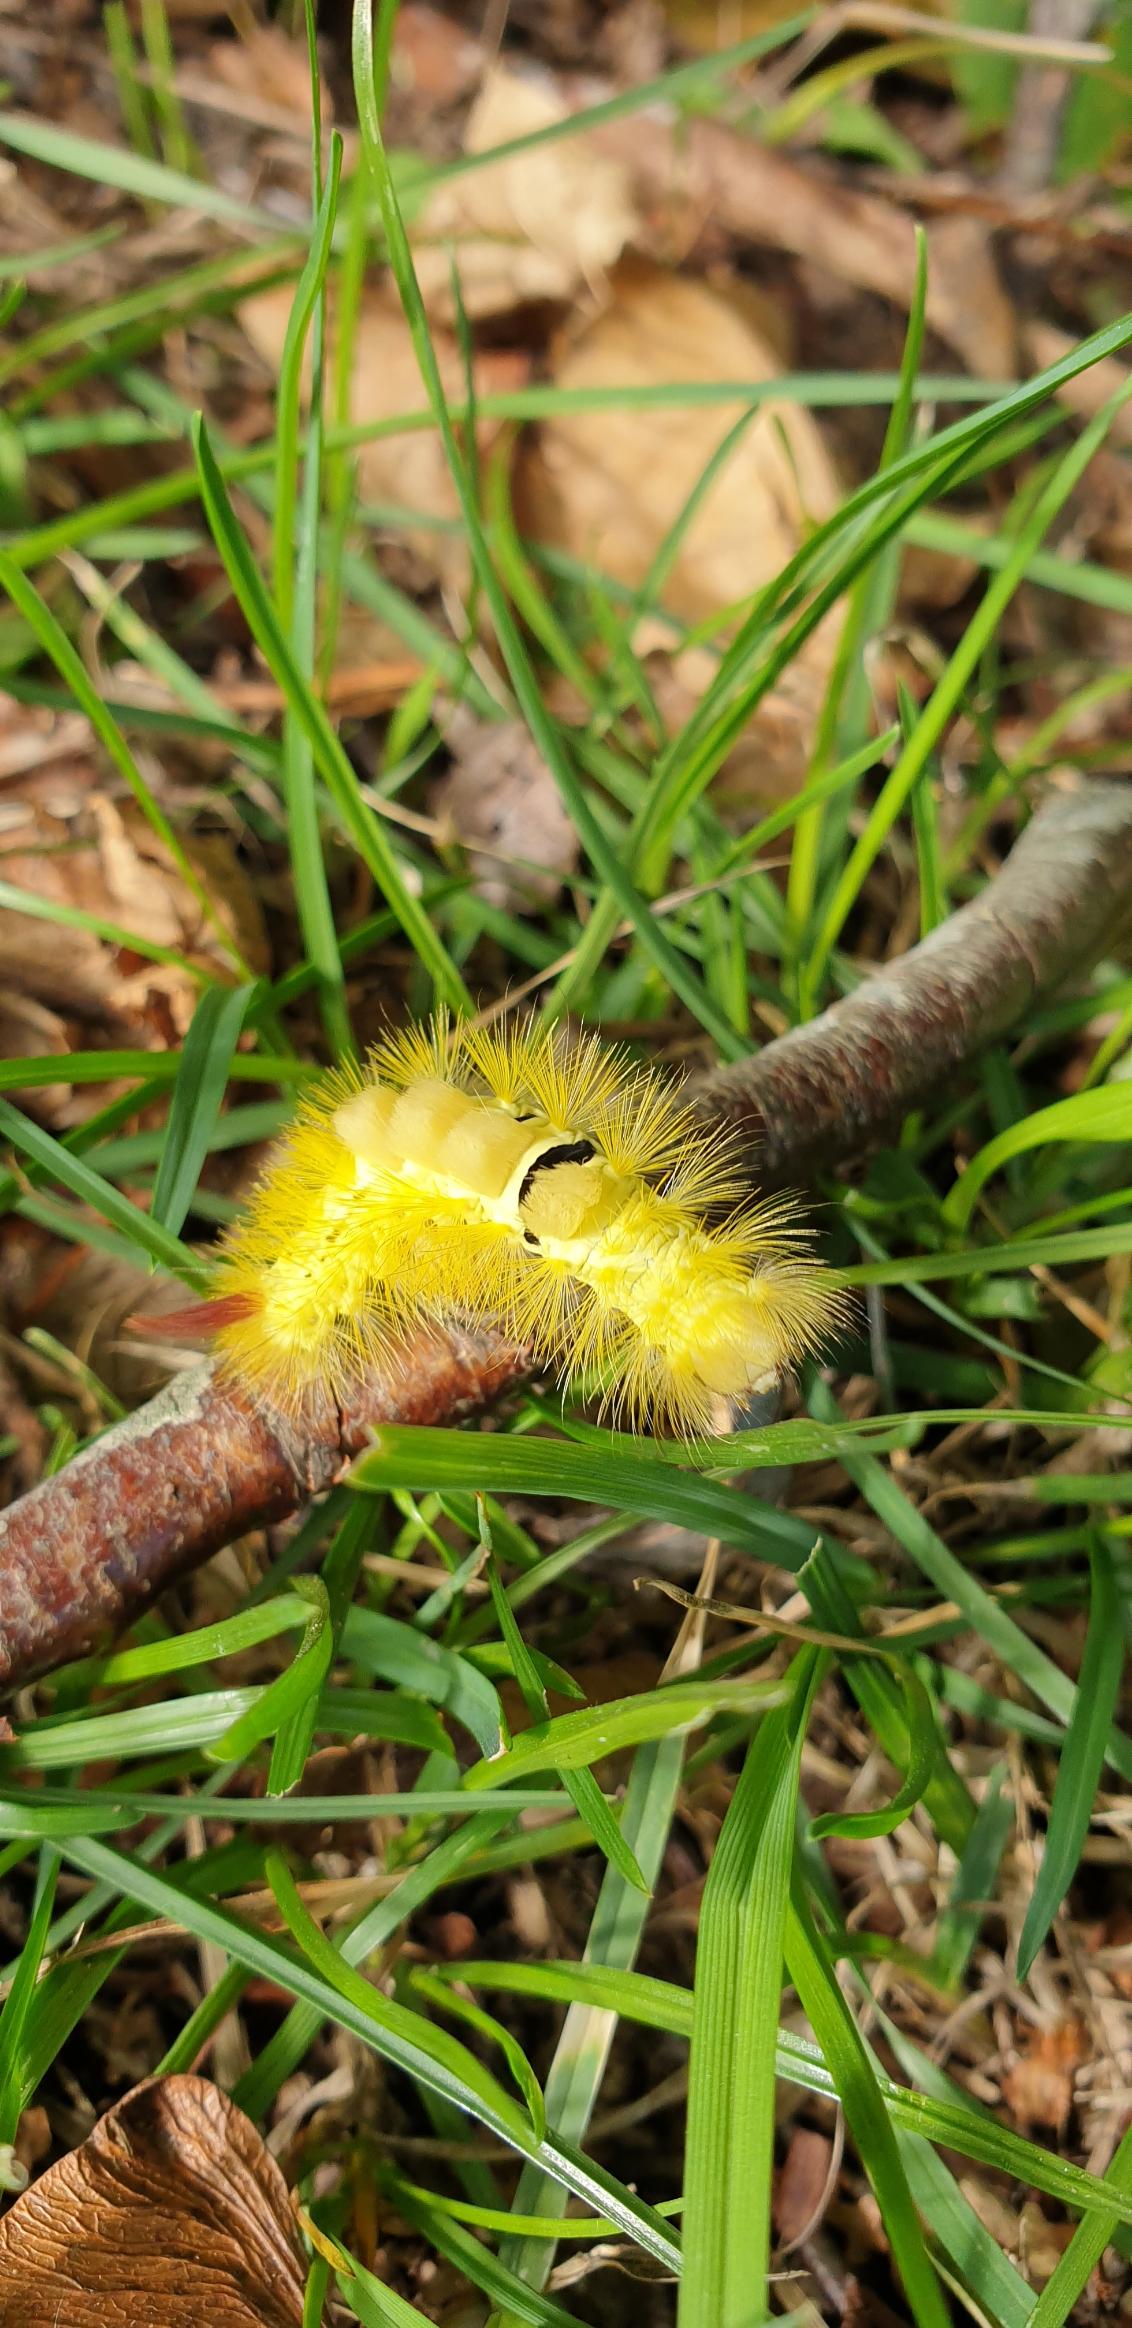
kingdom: Animalia
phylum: Arthropoda
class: Insecta
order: Lepidoptera
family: Erebidae
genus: Calliteara
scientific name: Calliteara pudibunda
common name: Bøgenonne
